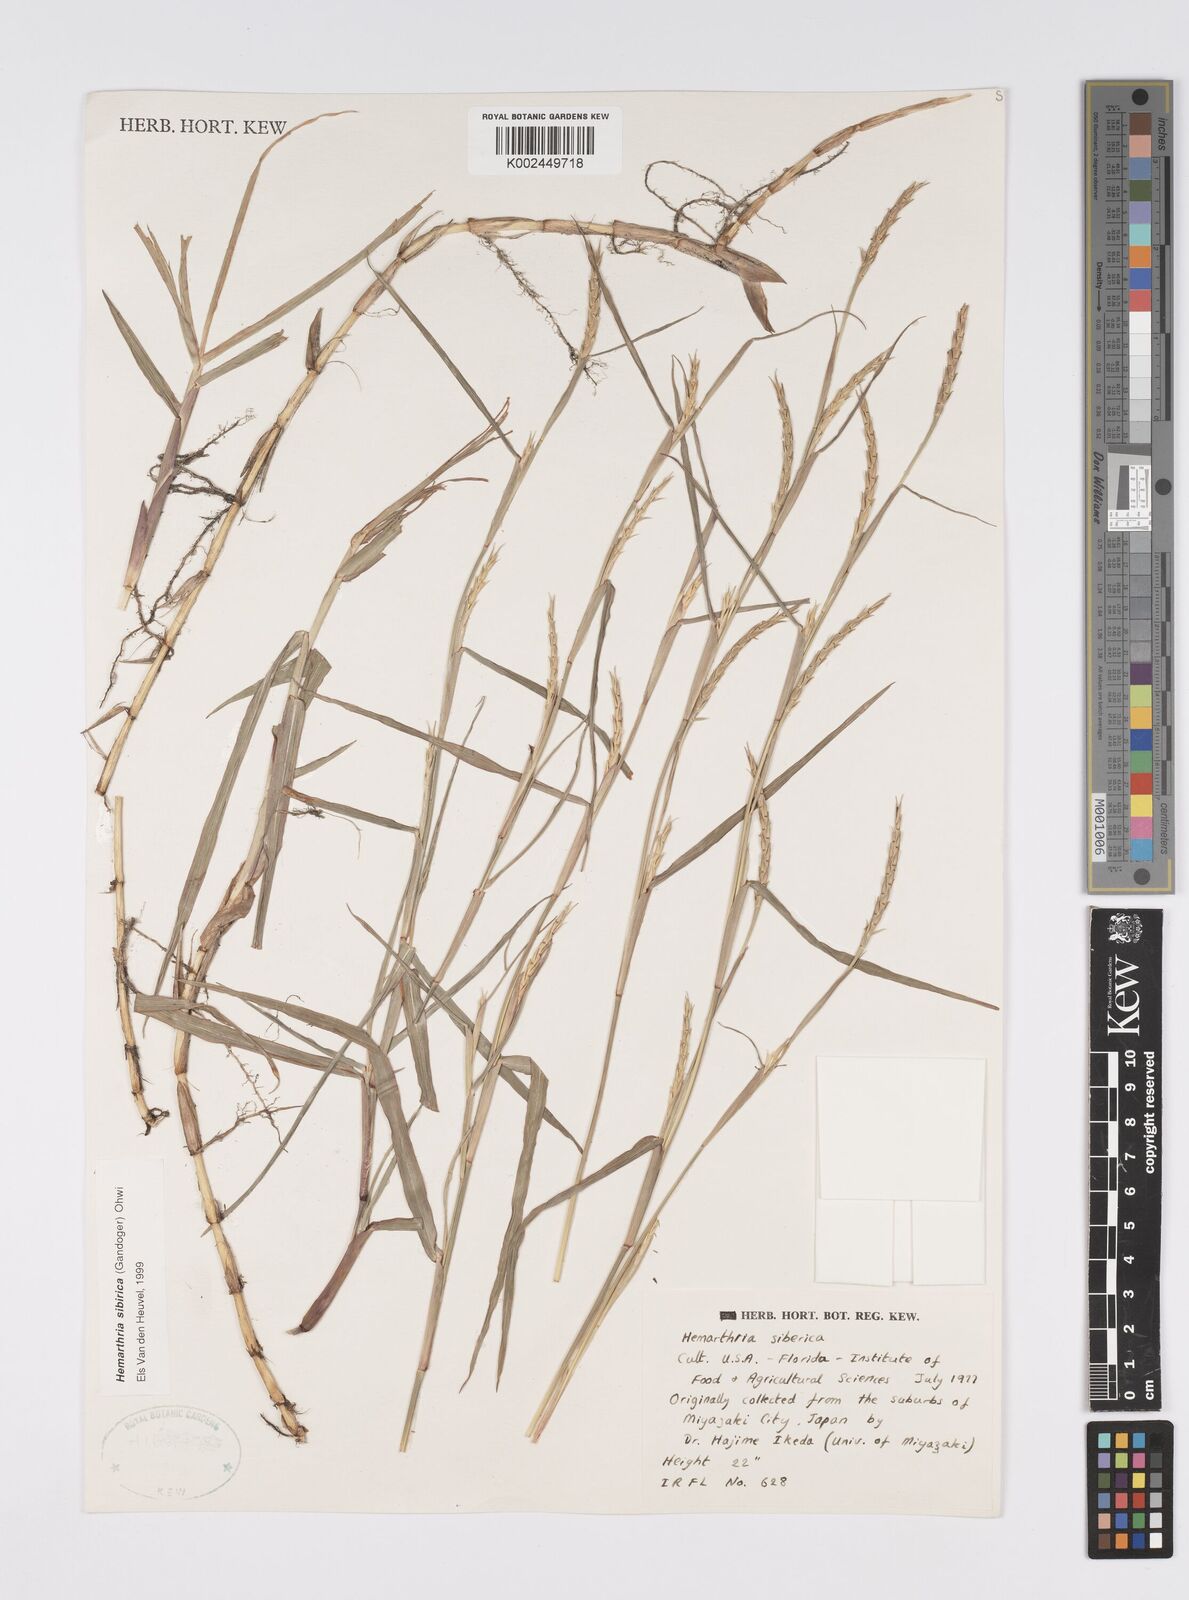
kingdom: Plantae
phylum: Tracheophyta
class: Liliopsida
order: Poales
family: Poaceae
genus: Hemarthria
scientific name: Hemarthria sibirica
